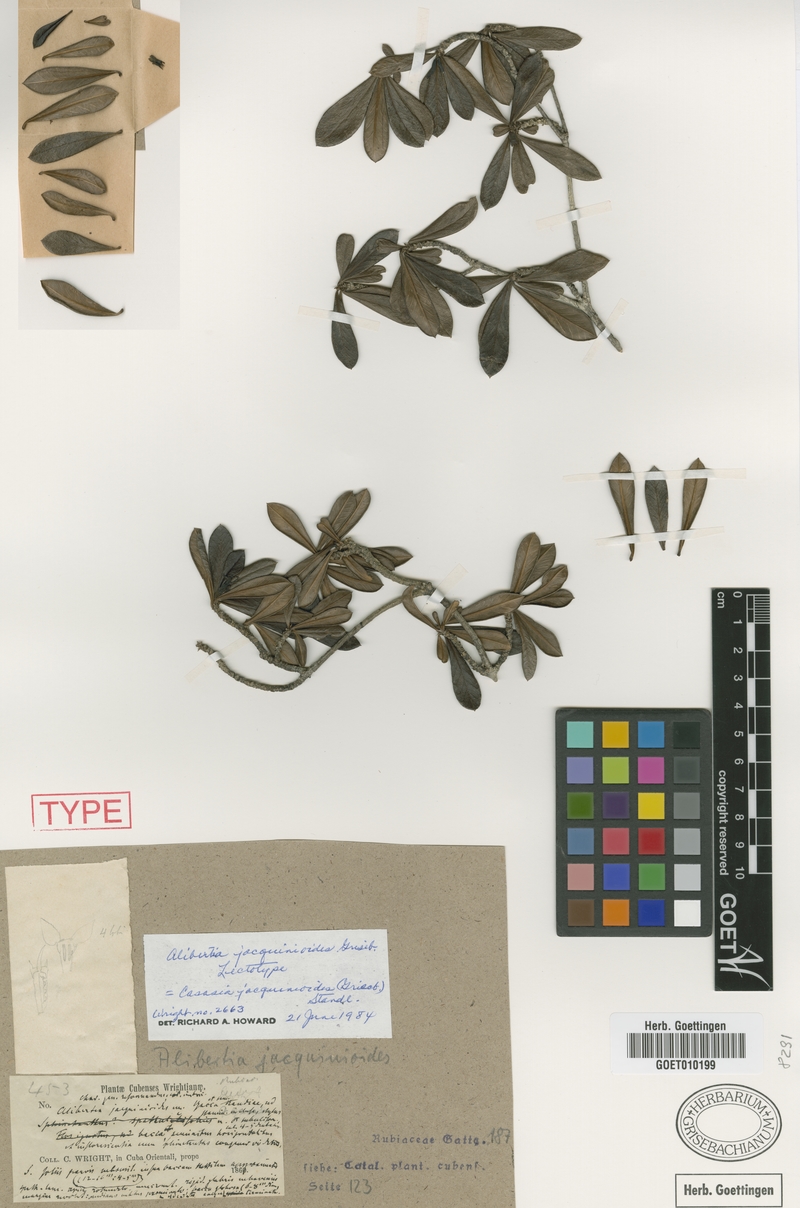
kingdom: Plantae
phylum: Tracheophyta
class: Magnoliopsida
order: Gentianales
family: Rubiaceae
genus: Casasia
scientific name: Casasia jacquinioides
